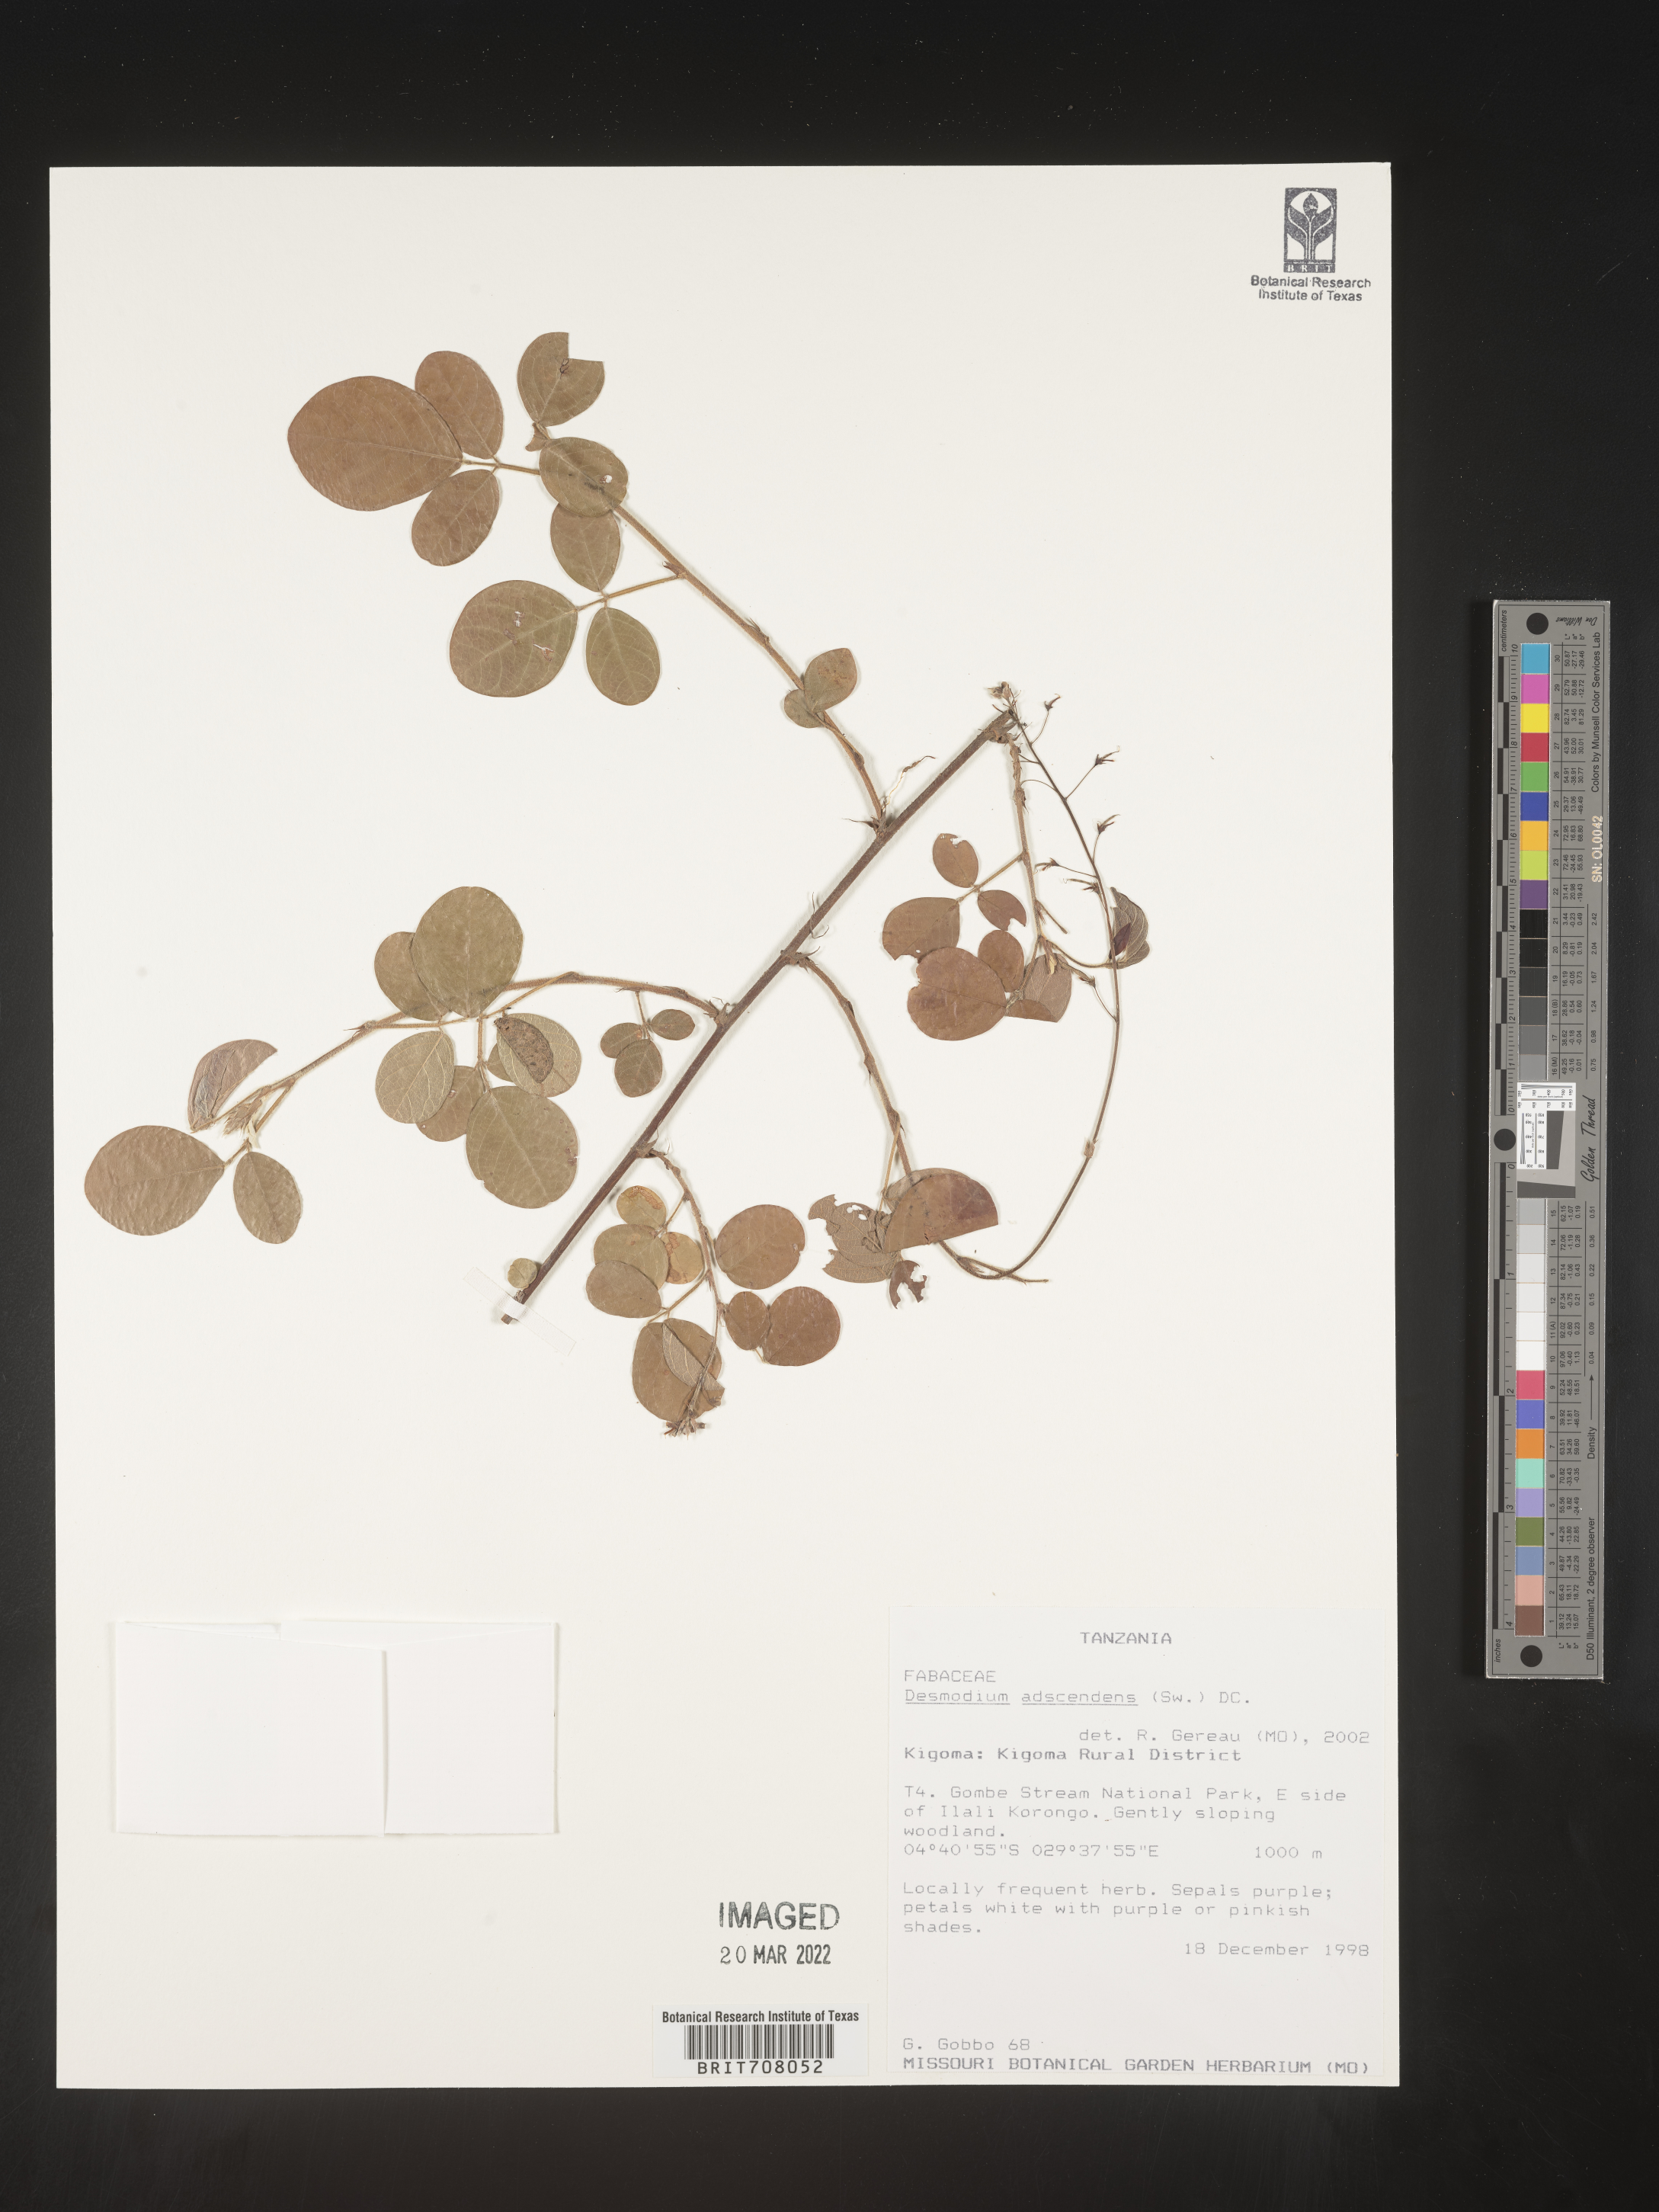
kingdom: Plantae
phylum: Tracheophyta
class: Magnoliopsida
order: Fabales
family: Fabaceae
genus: Desmodium
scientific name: Desmodium
